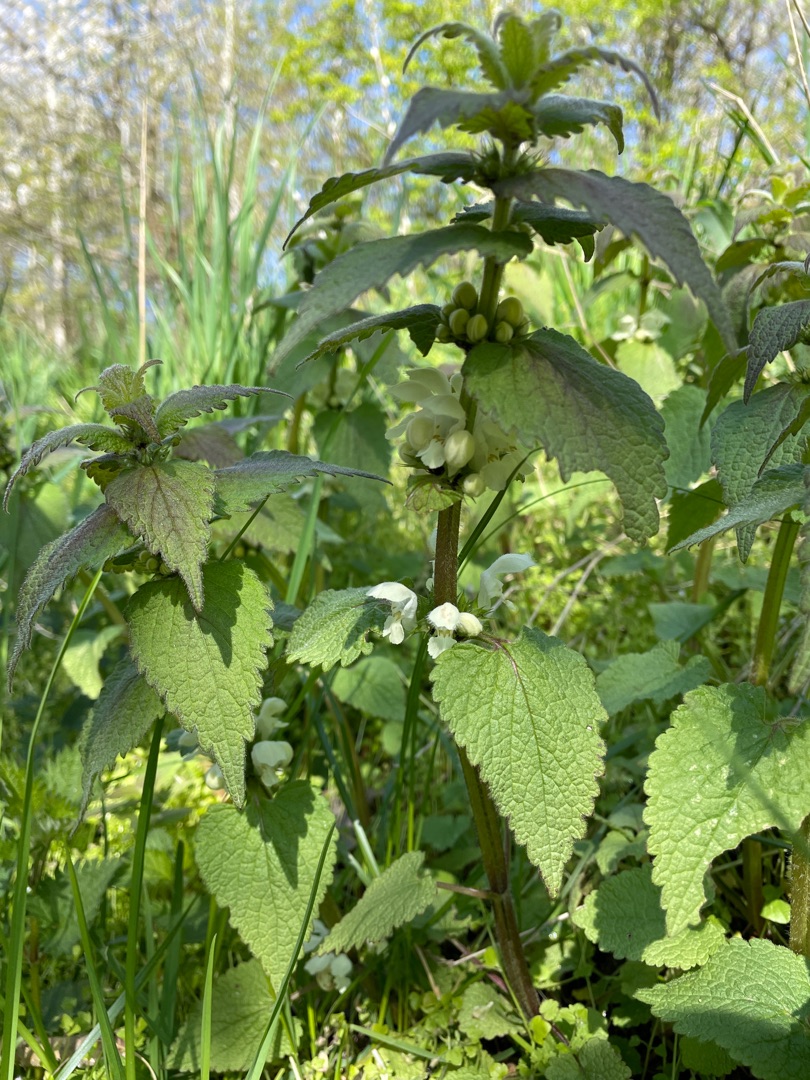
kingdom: Plantae
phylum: Tracheophyta
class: Magnoliopsida
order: Lamiales
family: Lamiaceae
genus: Lamium
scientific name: Lamium album
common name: Døvnælde
